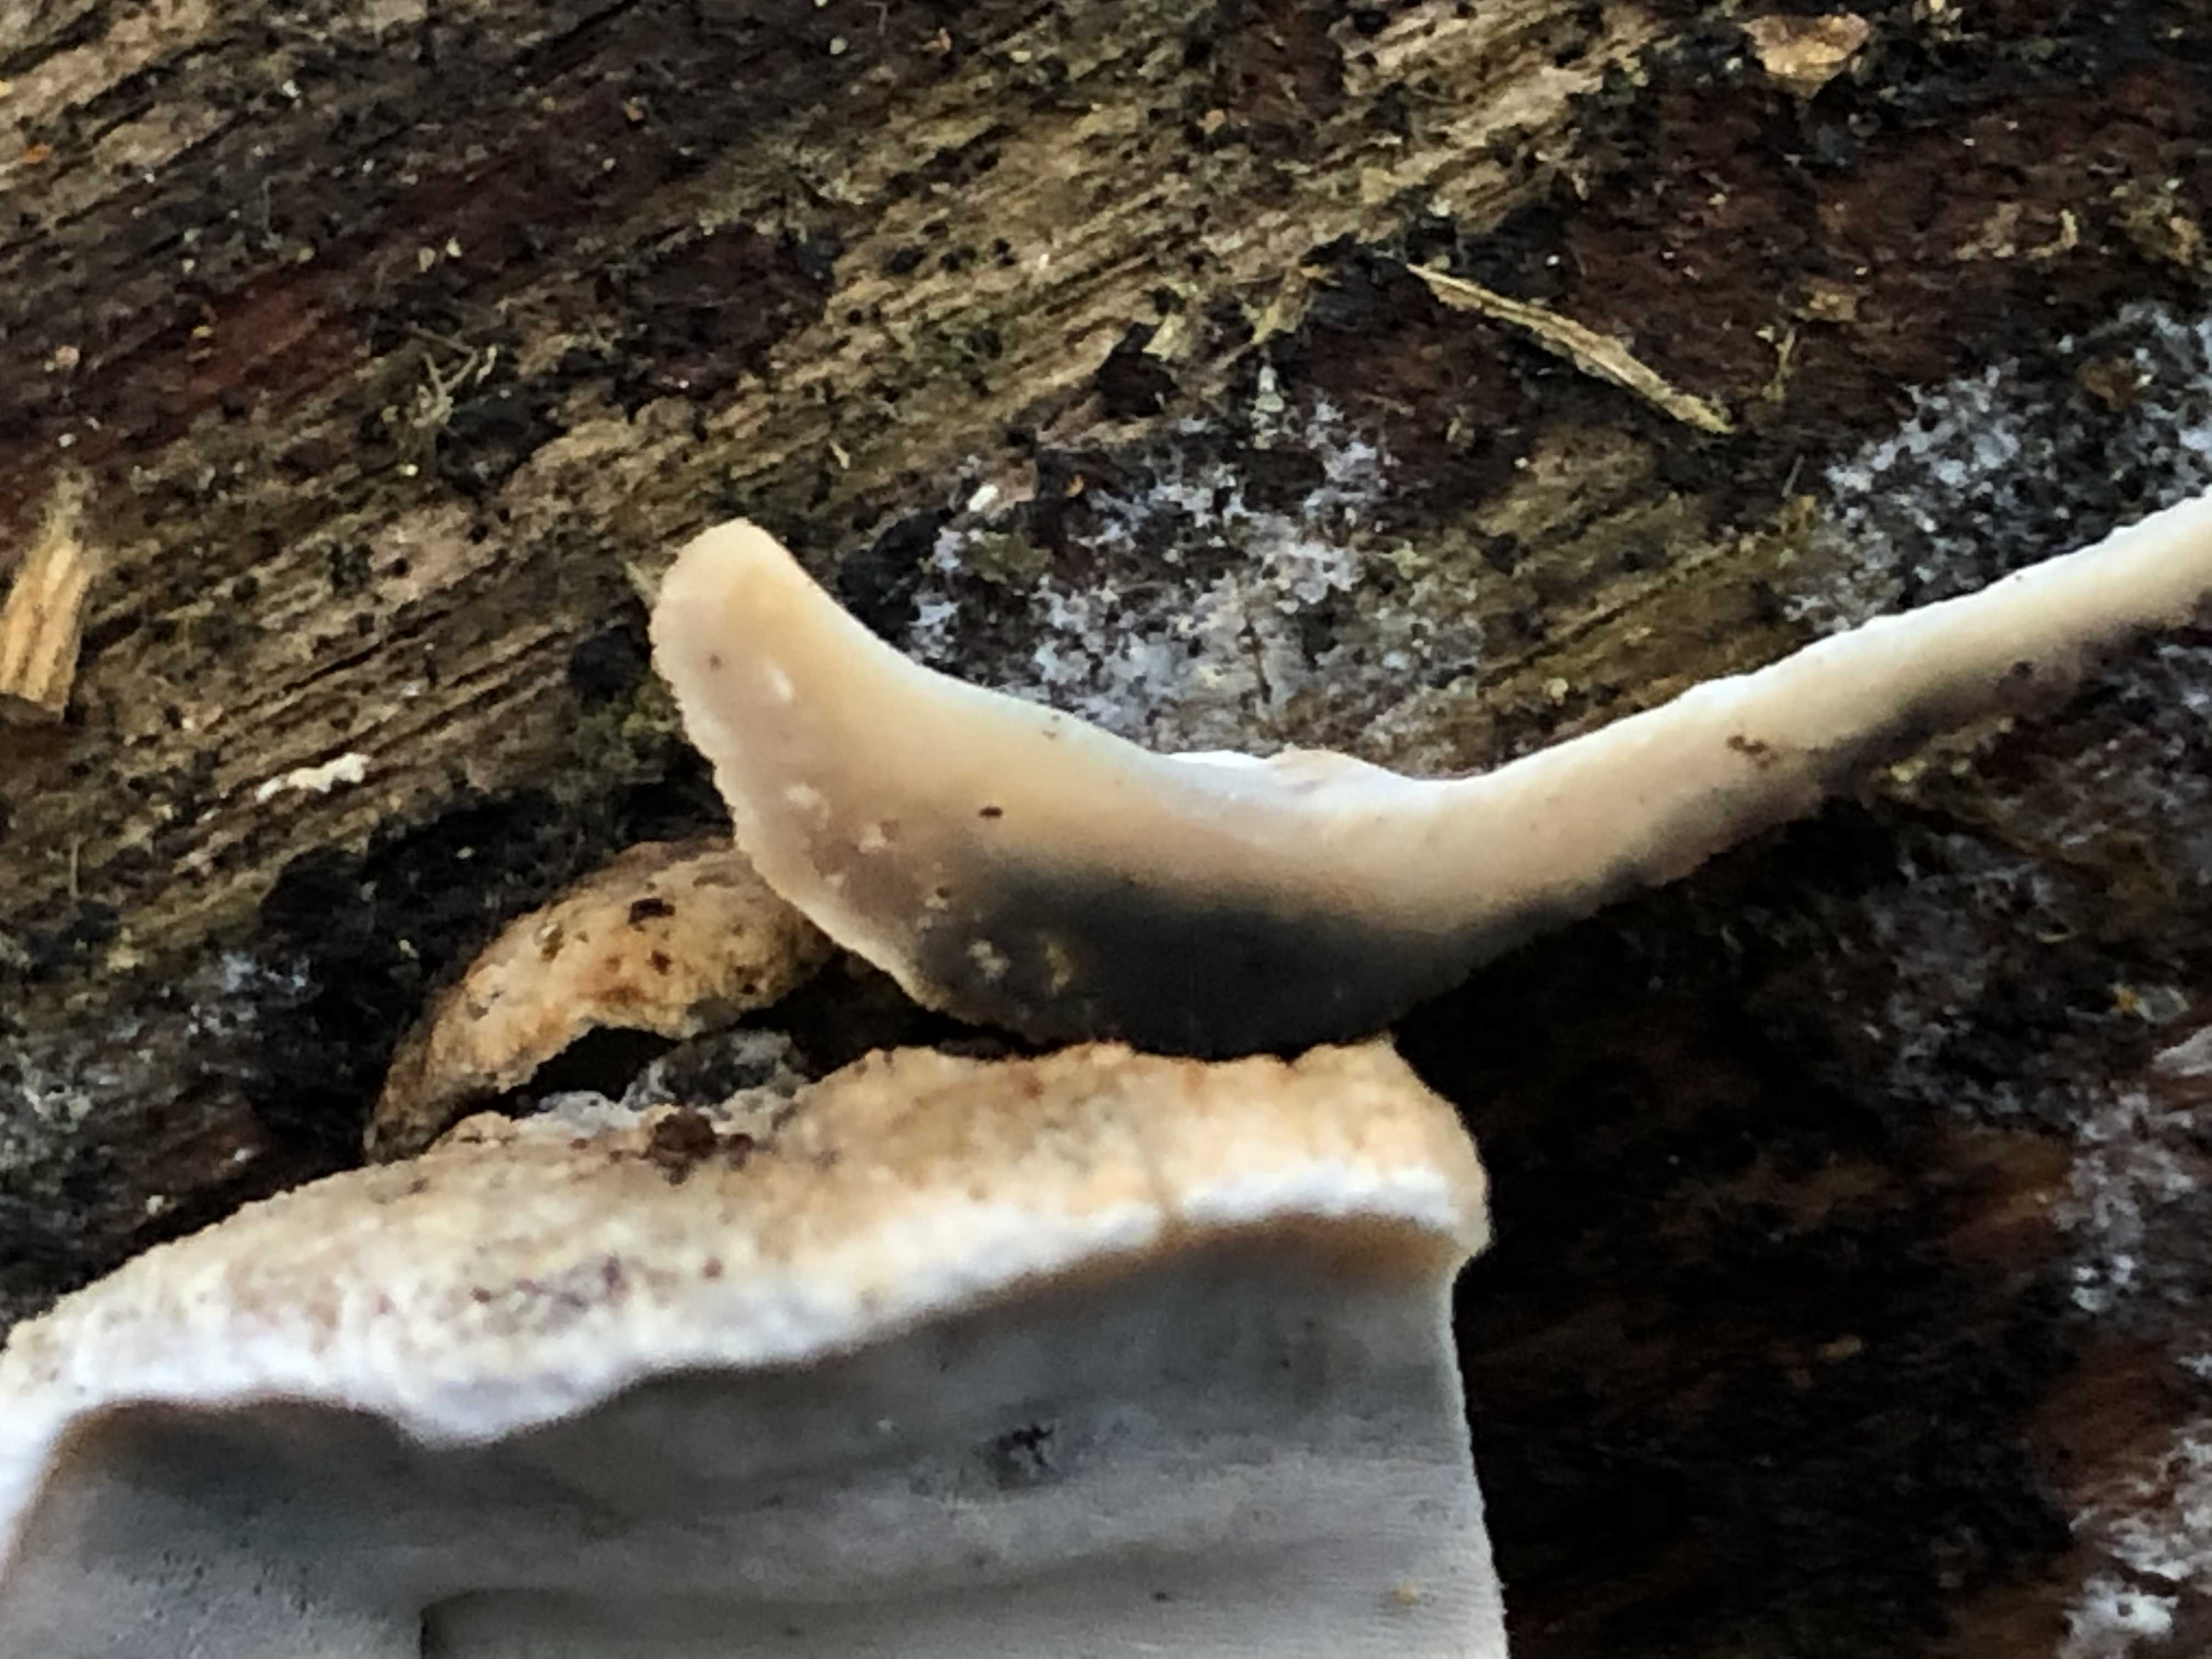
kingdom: Fungi
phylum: Basidiomycota
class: Agaricomycetes
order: Polyporales
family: Phanerochaetaceae
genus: Bjerkandera
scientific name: Bjerkandera adusta
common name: sveden sodporesvamp
